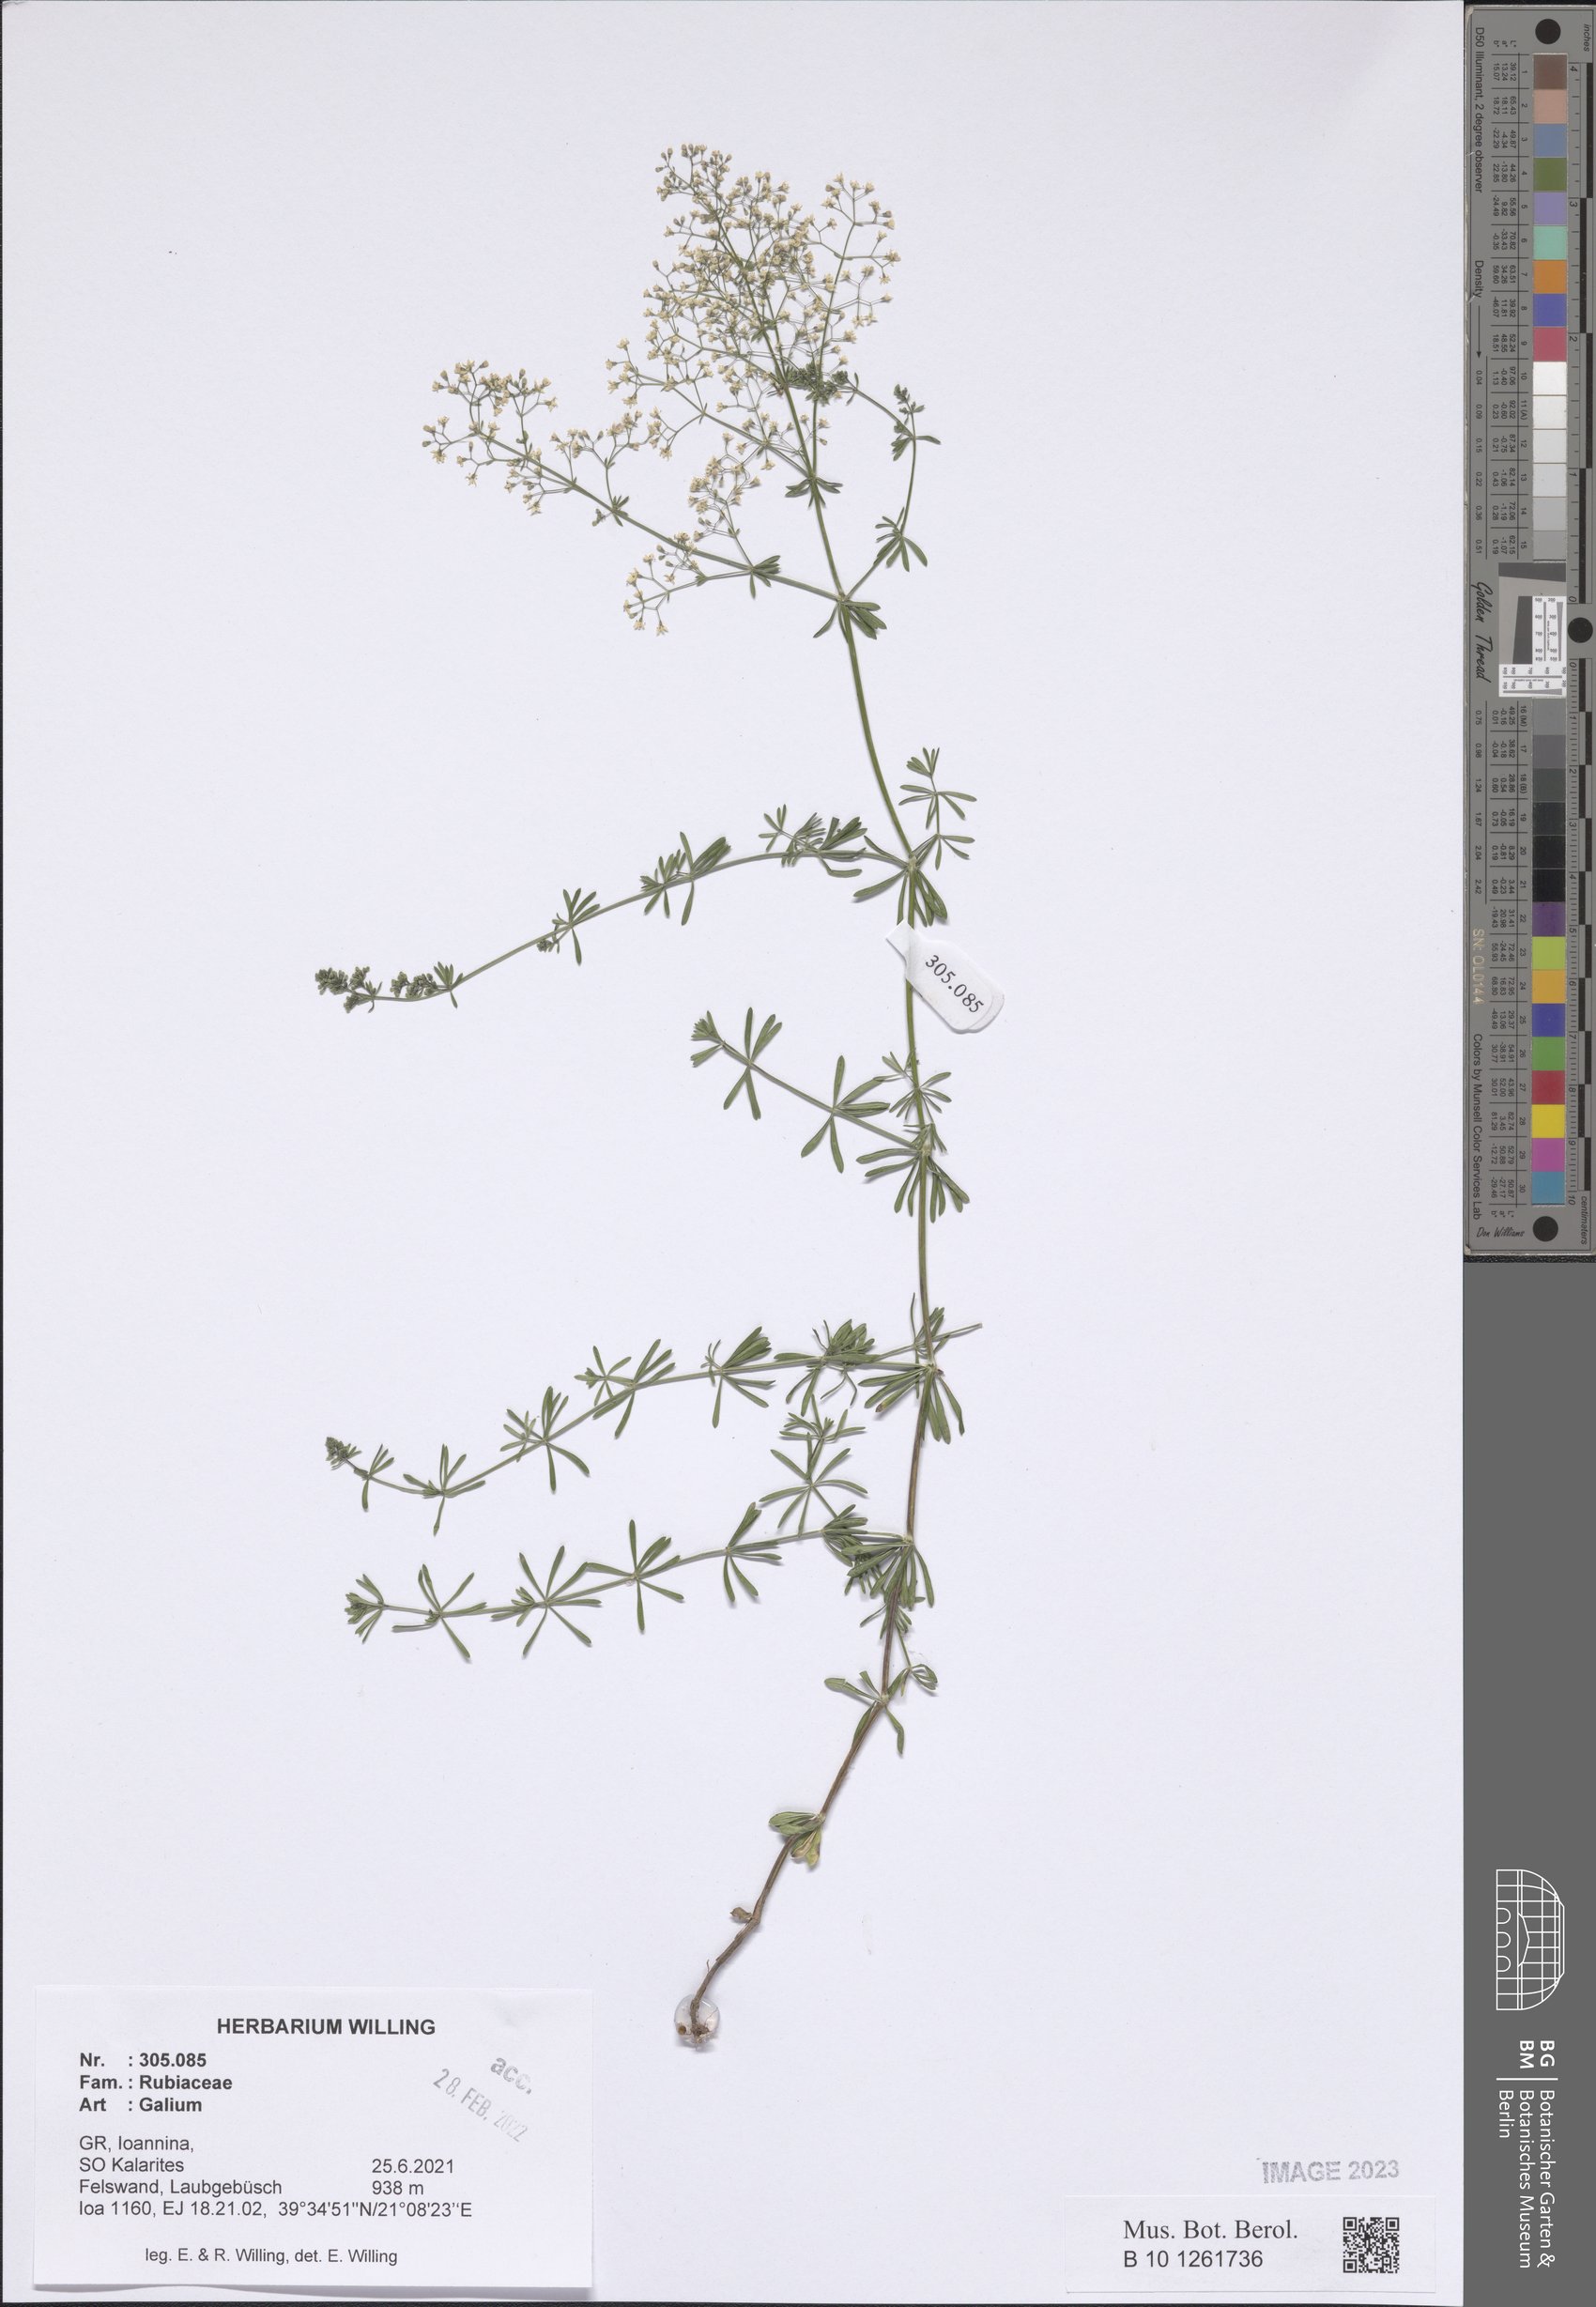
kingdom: Plantae
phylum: Tracheophyta
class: Magnoliopsida
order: Gentianales
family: Rubiaceae
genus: Galium
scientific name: Galium
